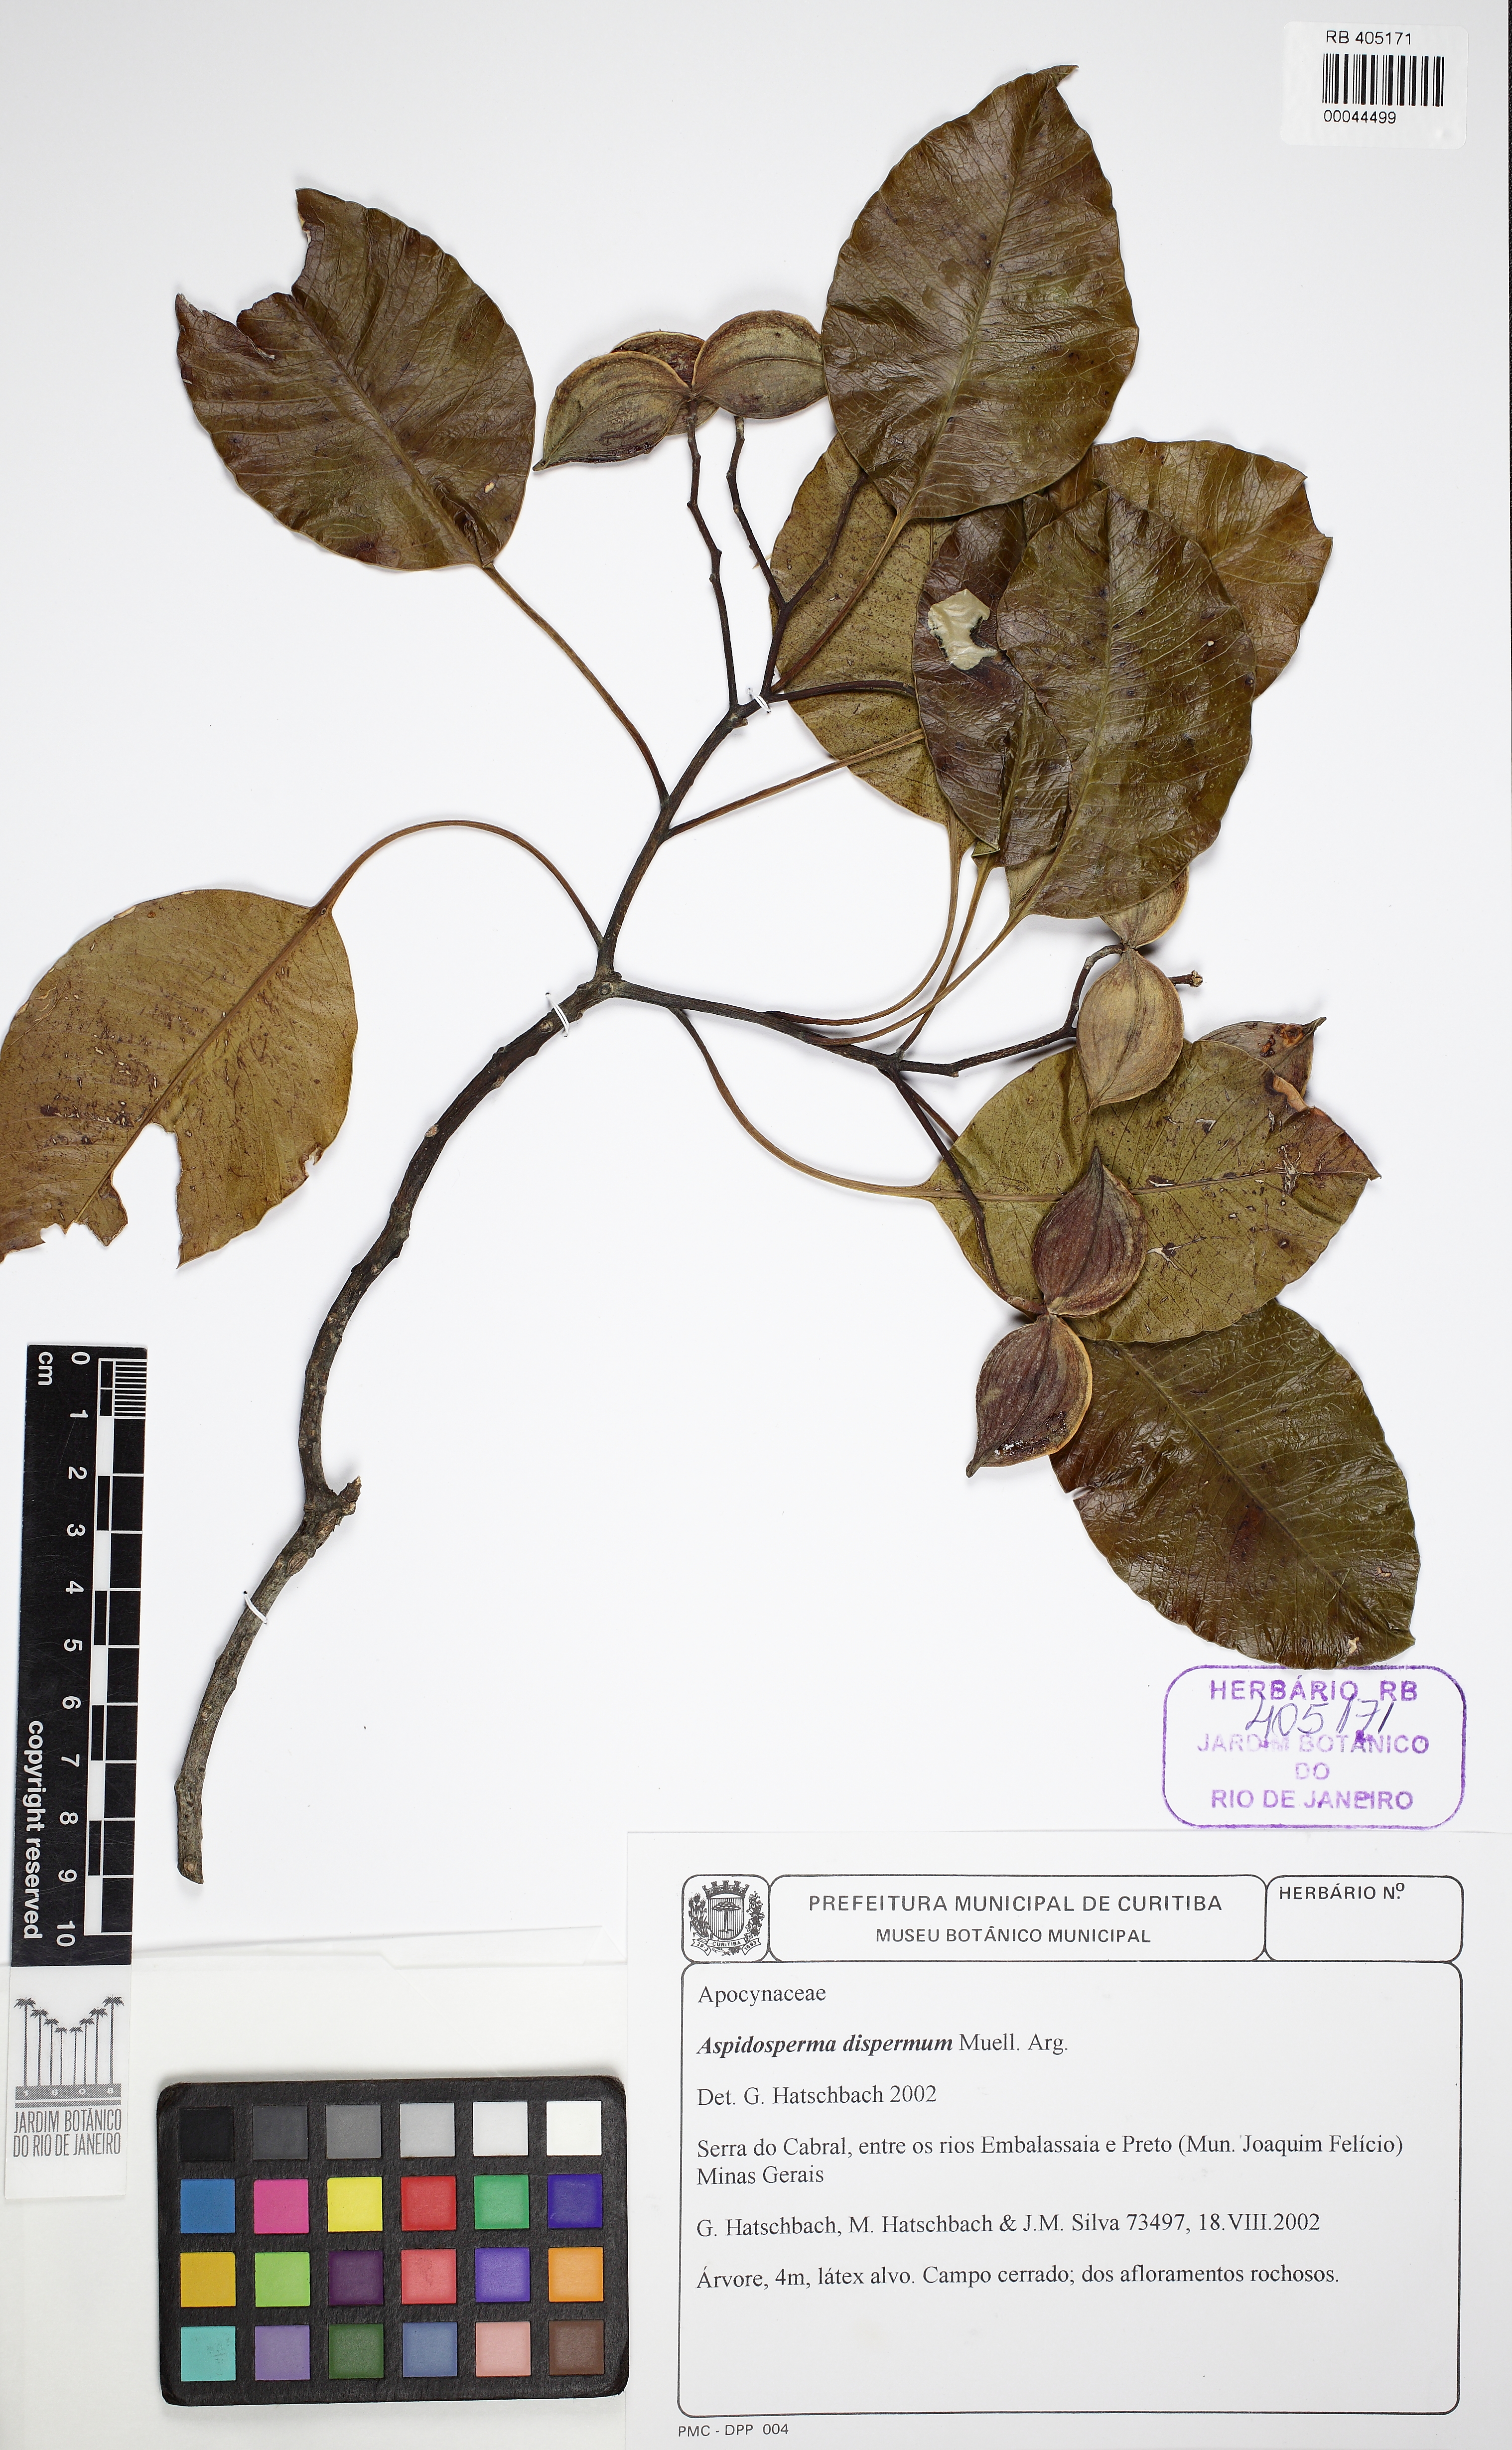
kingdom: Plantae
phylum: Tracheophyta
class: Magnoliopsida
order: Gentianales
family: Apocynaceae
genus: Aspidosperma
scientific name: Aspidosperma dispermum
